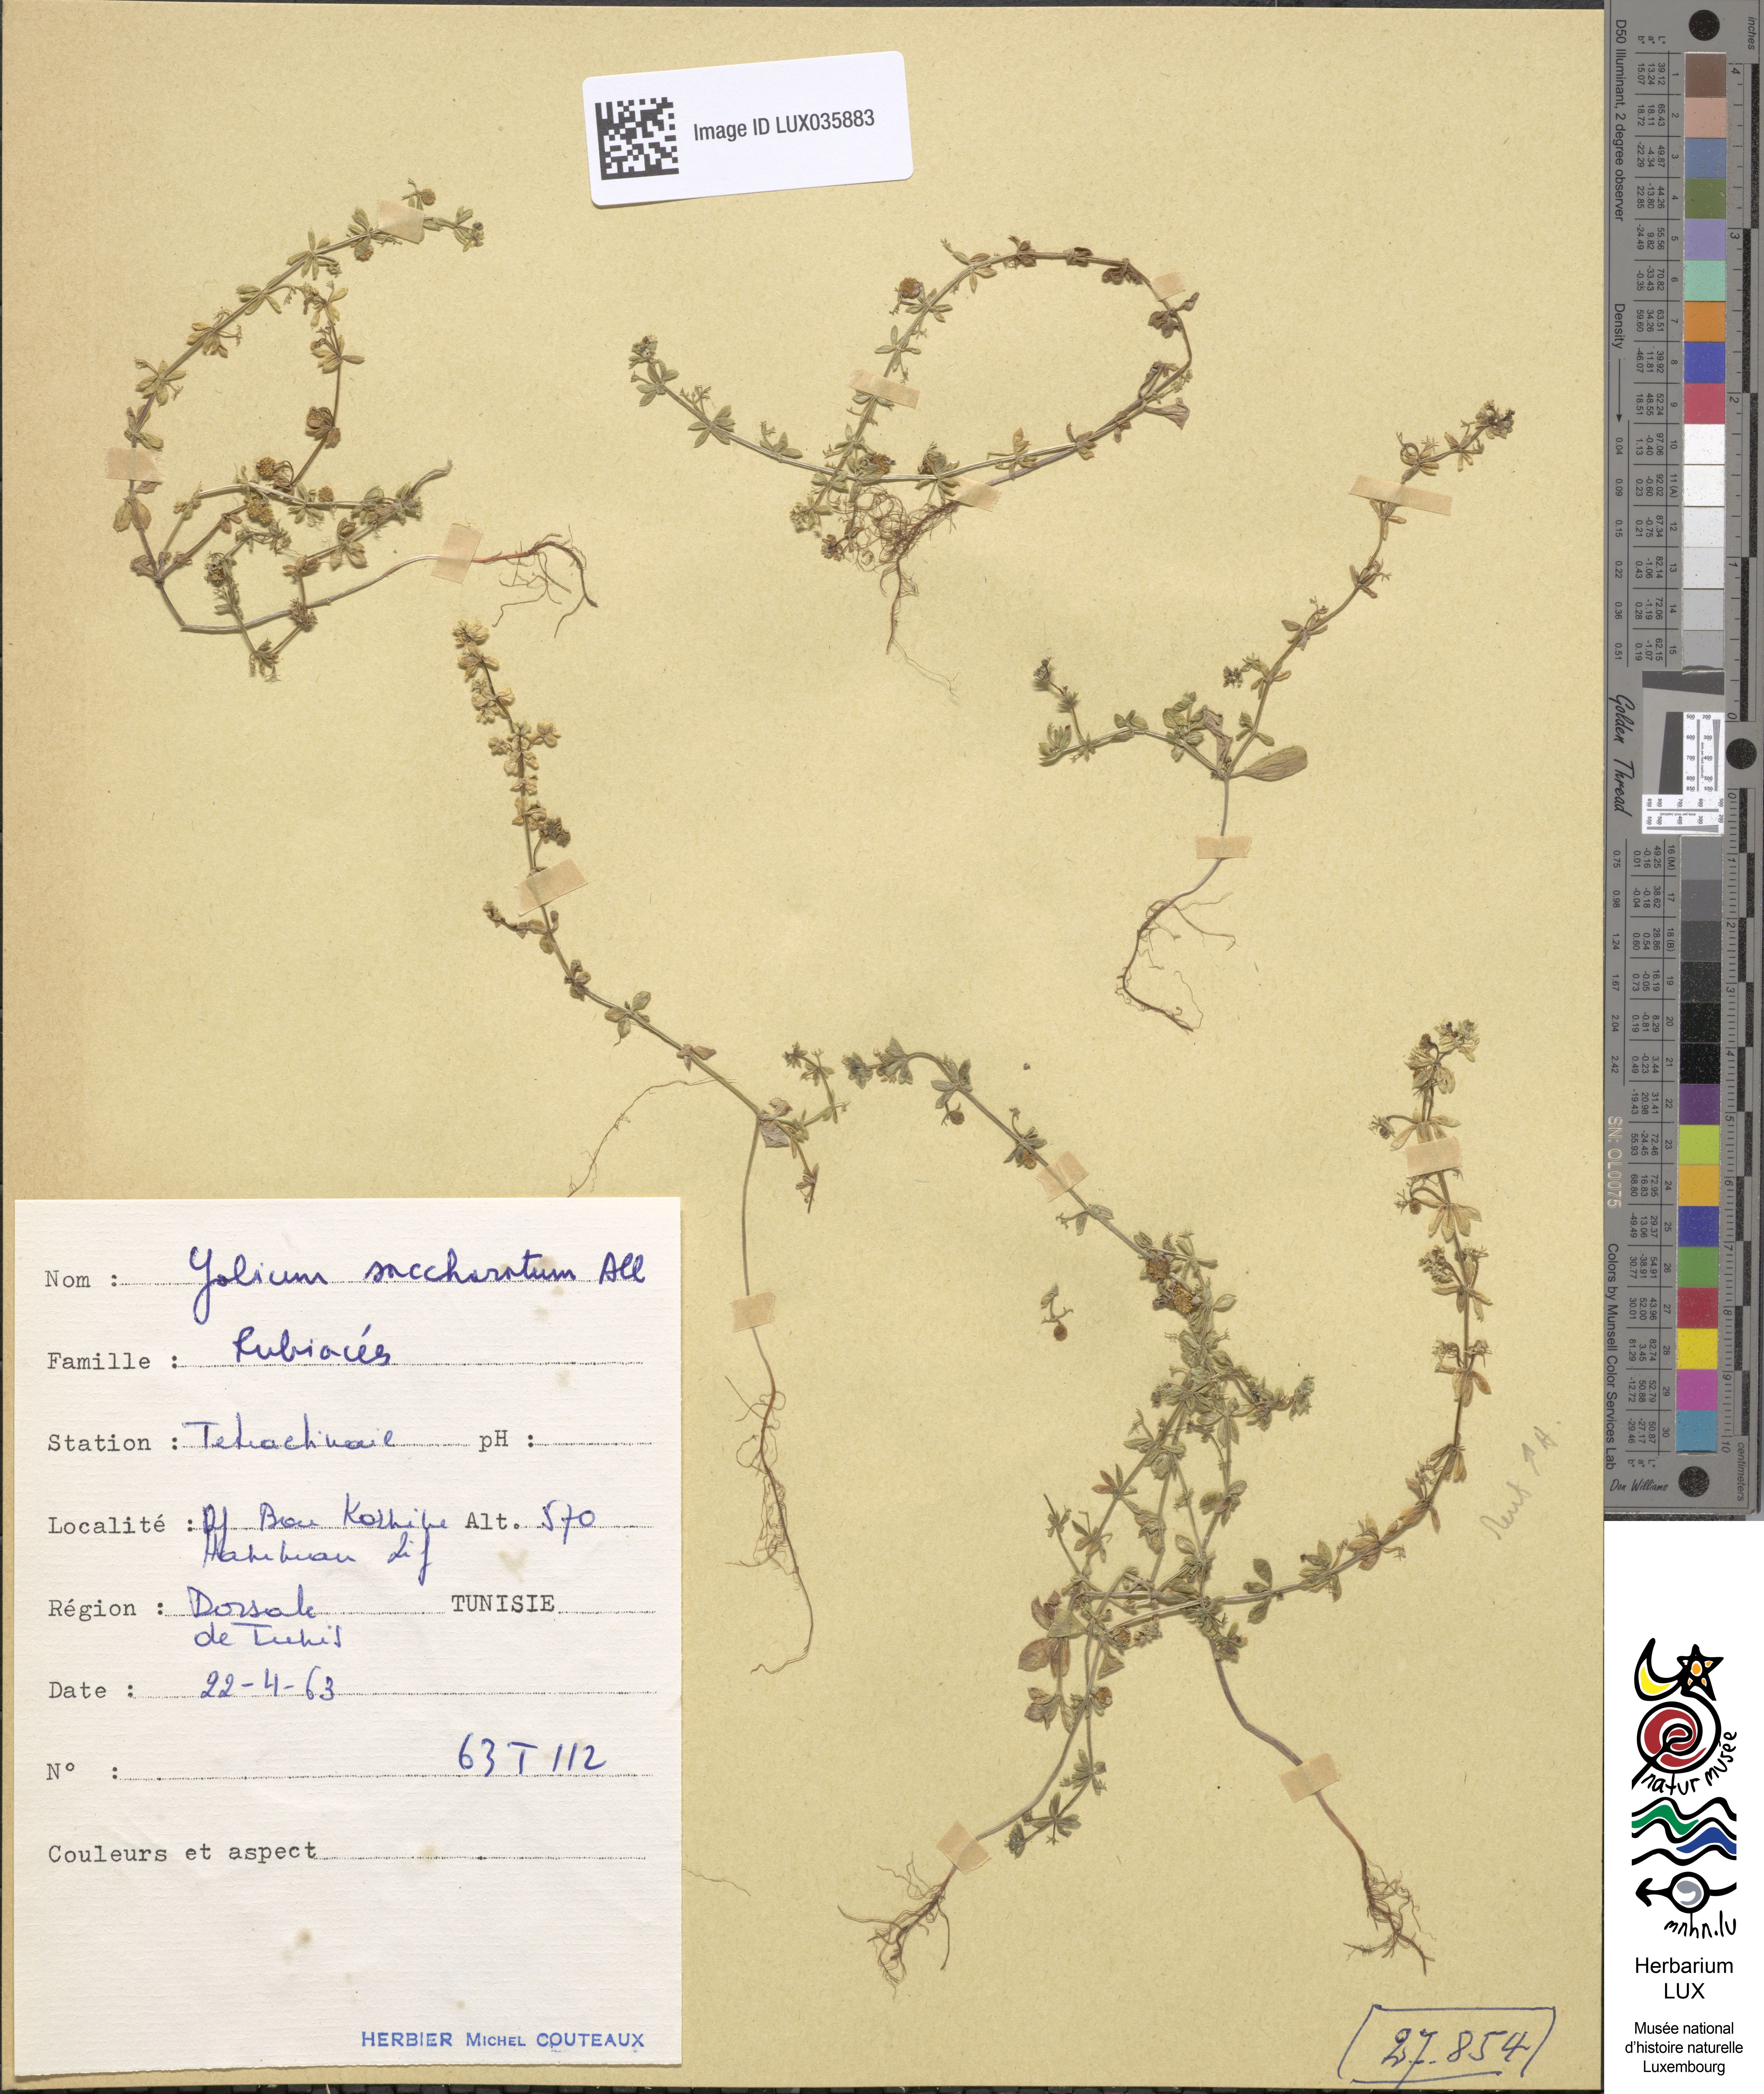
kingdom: Plantae
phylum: Tracheophyta
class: Magnoliopsida
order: Gentianales
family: Rubiaceae
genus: Galium
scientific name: Galium verrucosum
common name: Warty bedstraw
